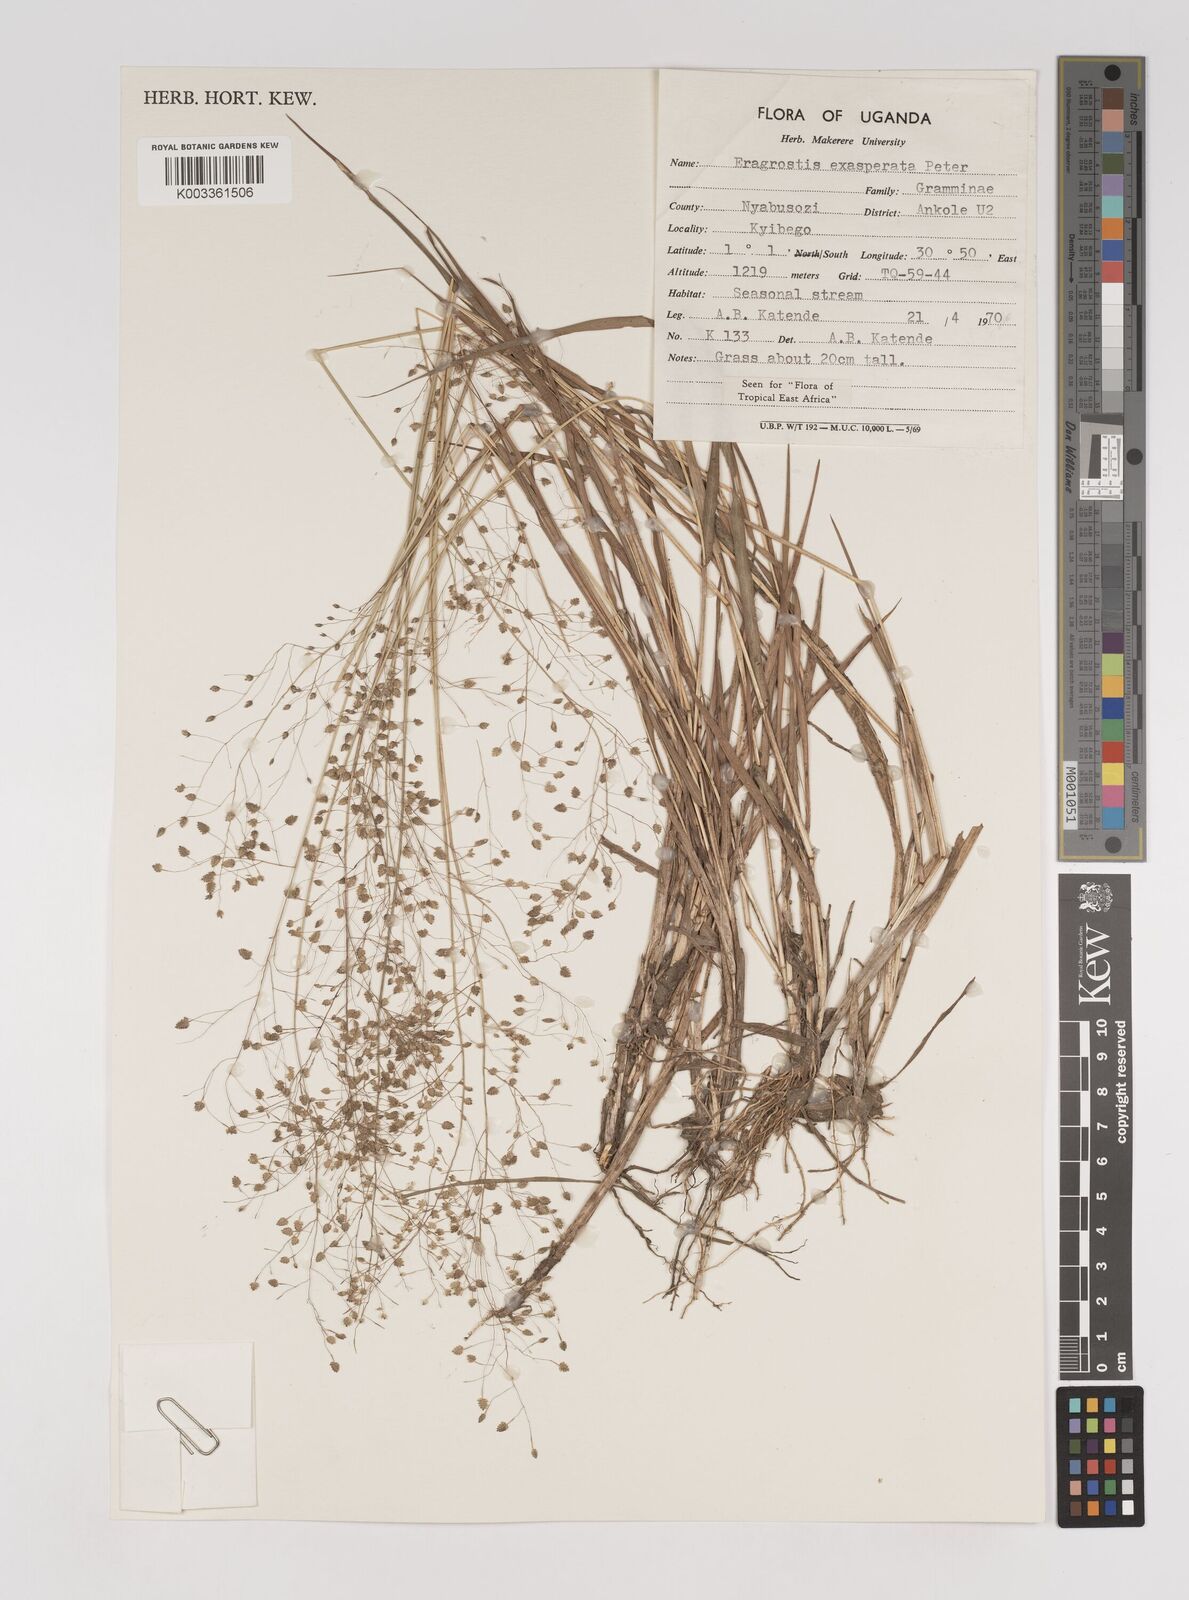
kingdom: Plantae
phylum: Tracheophyta
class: Liliopsida
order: Poales
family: Poaceae
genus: Eragrostis
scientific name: Eragrostis exasperata
